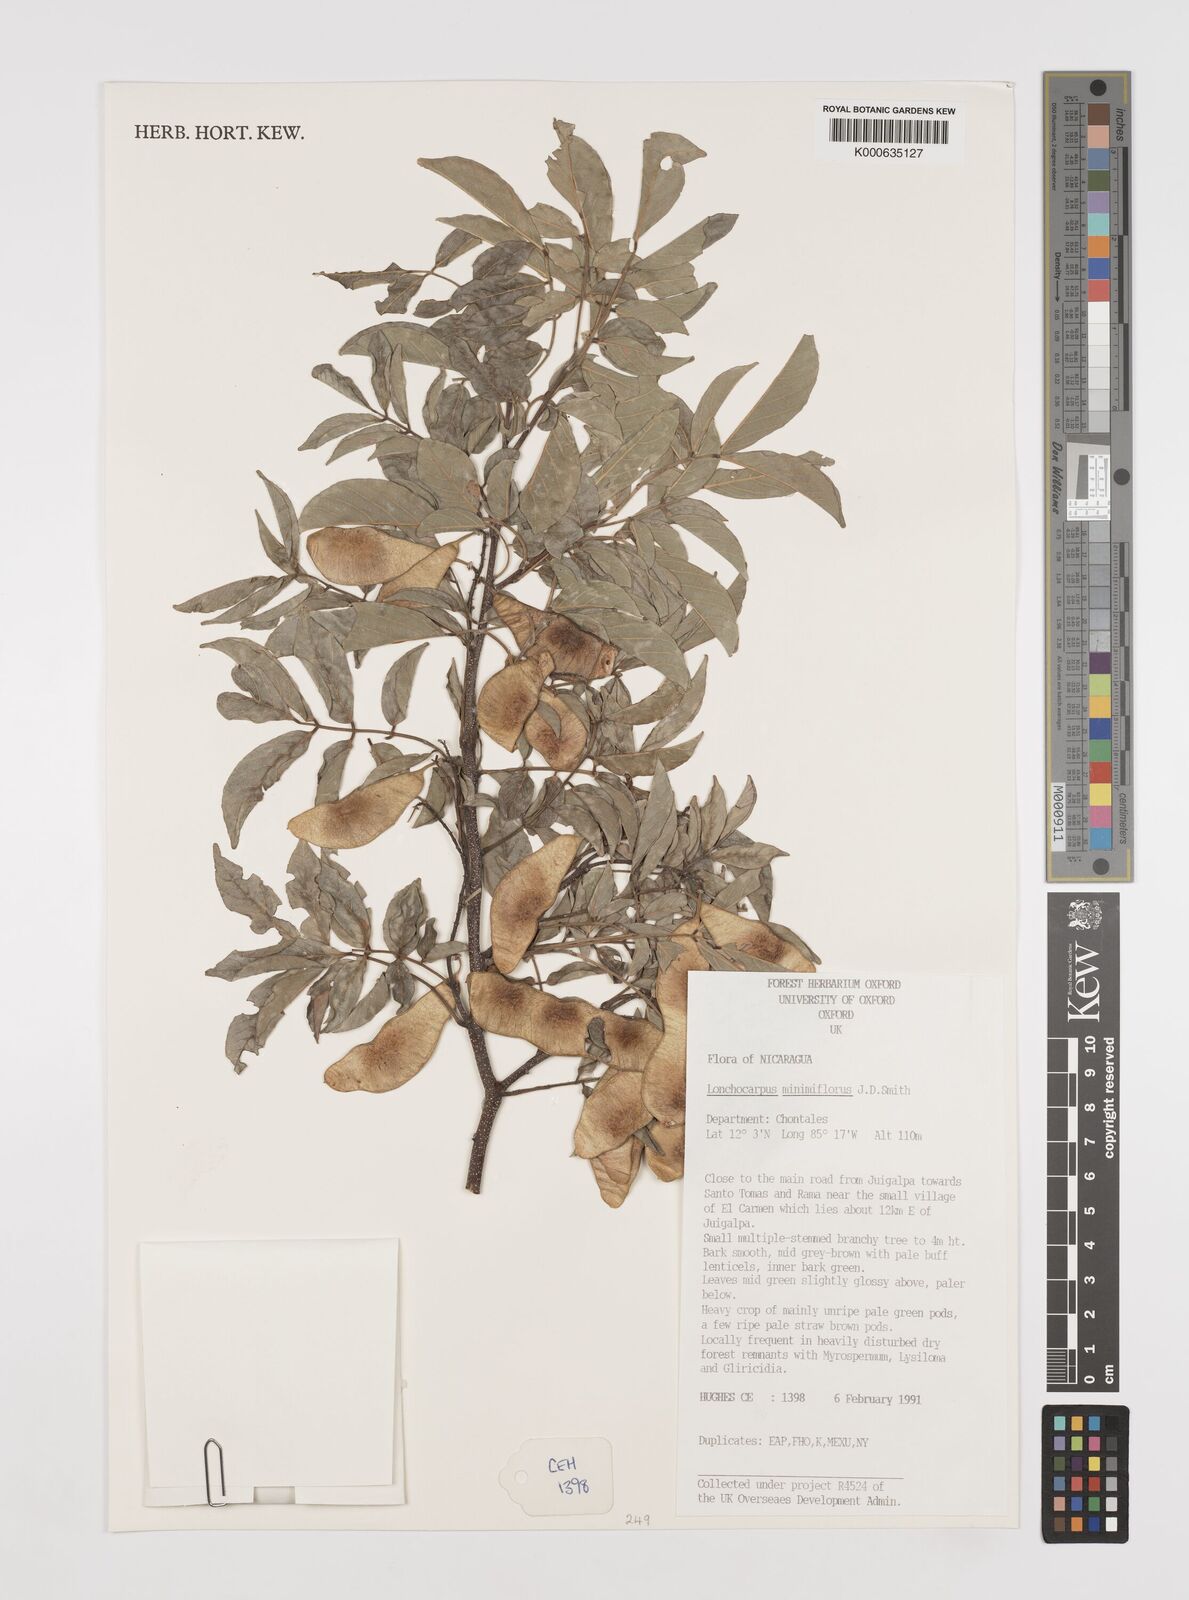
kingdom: Plantae
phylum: Tracheophyta
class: Magnoliopsida
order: Fabales
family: Fabaceae
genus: Lonchocarpus
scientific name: Lonchocarpus
